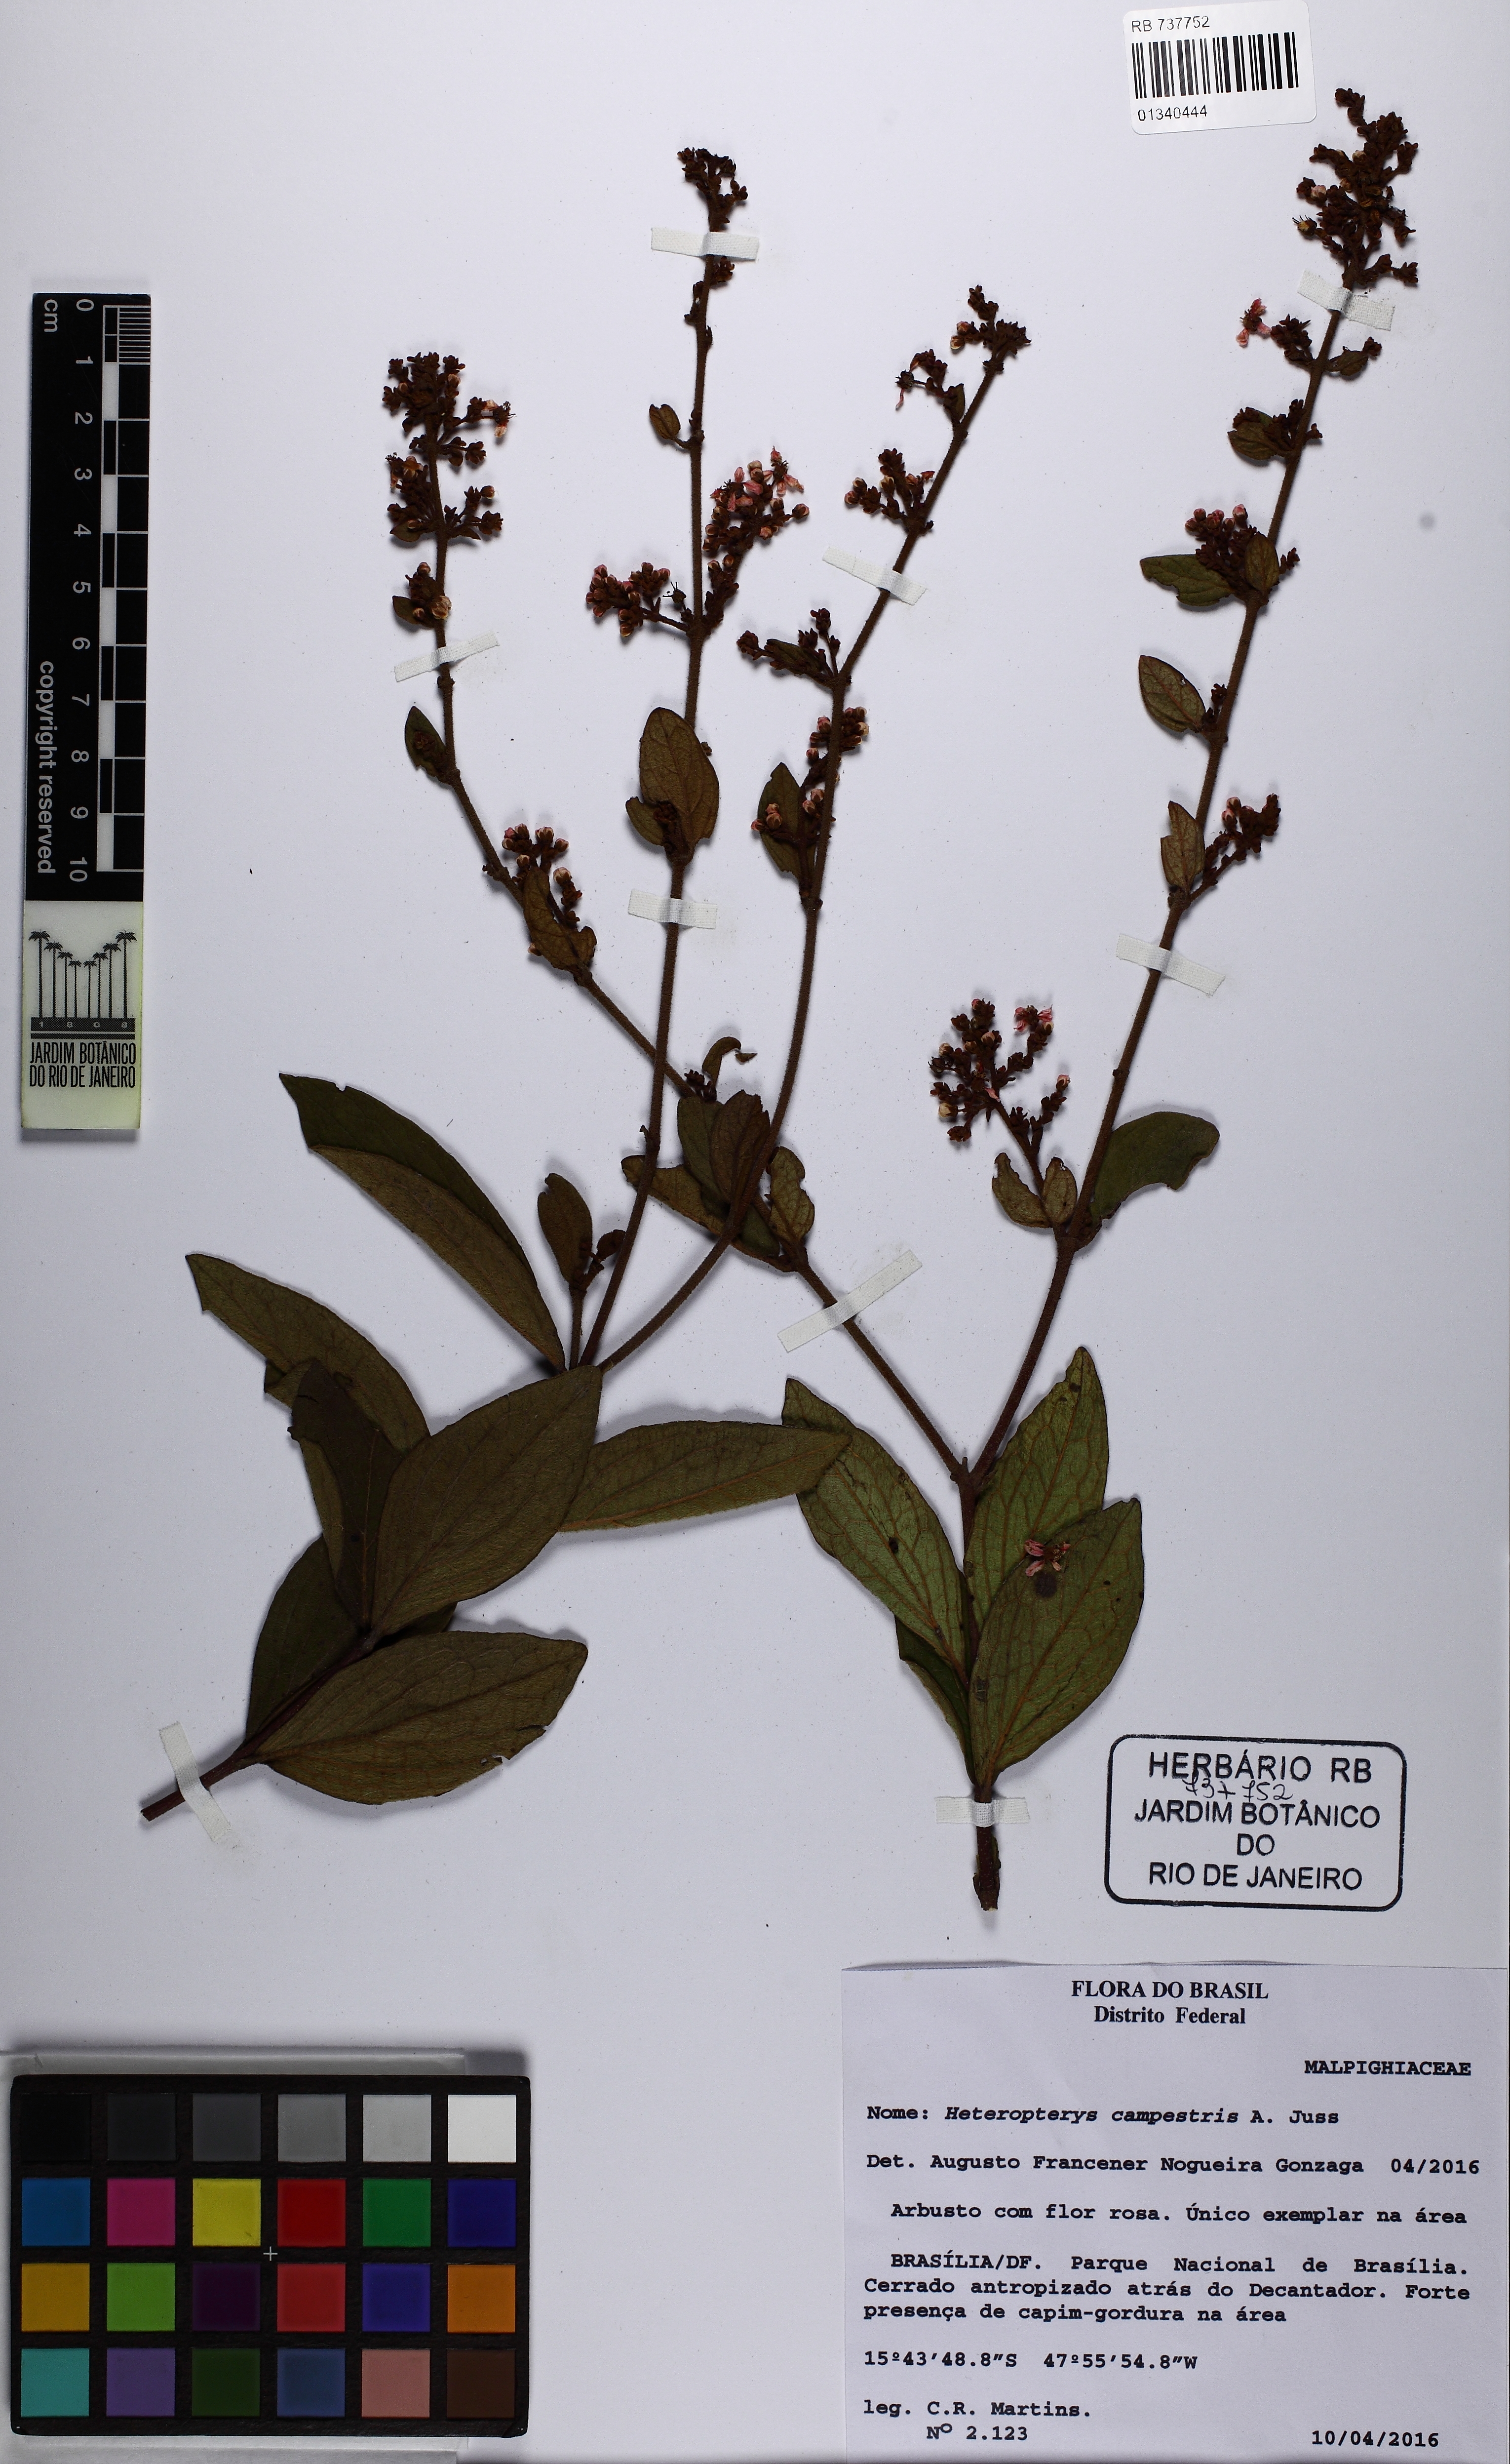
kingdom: Plantae
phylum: Tracheophyta
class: Magnoliopsida
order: Malpighiales
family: Malpighiaceae
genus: Heteropterys
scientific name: Heteropterys campestris
